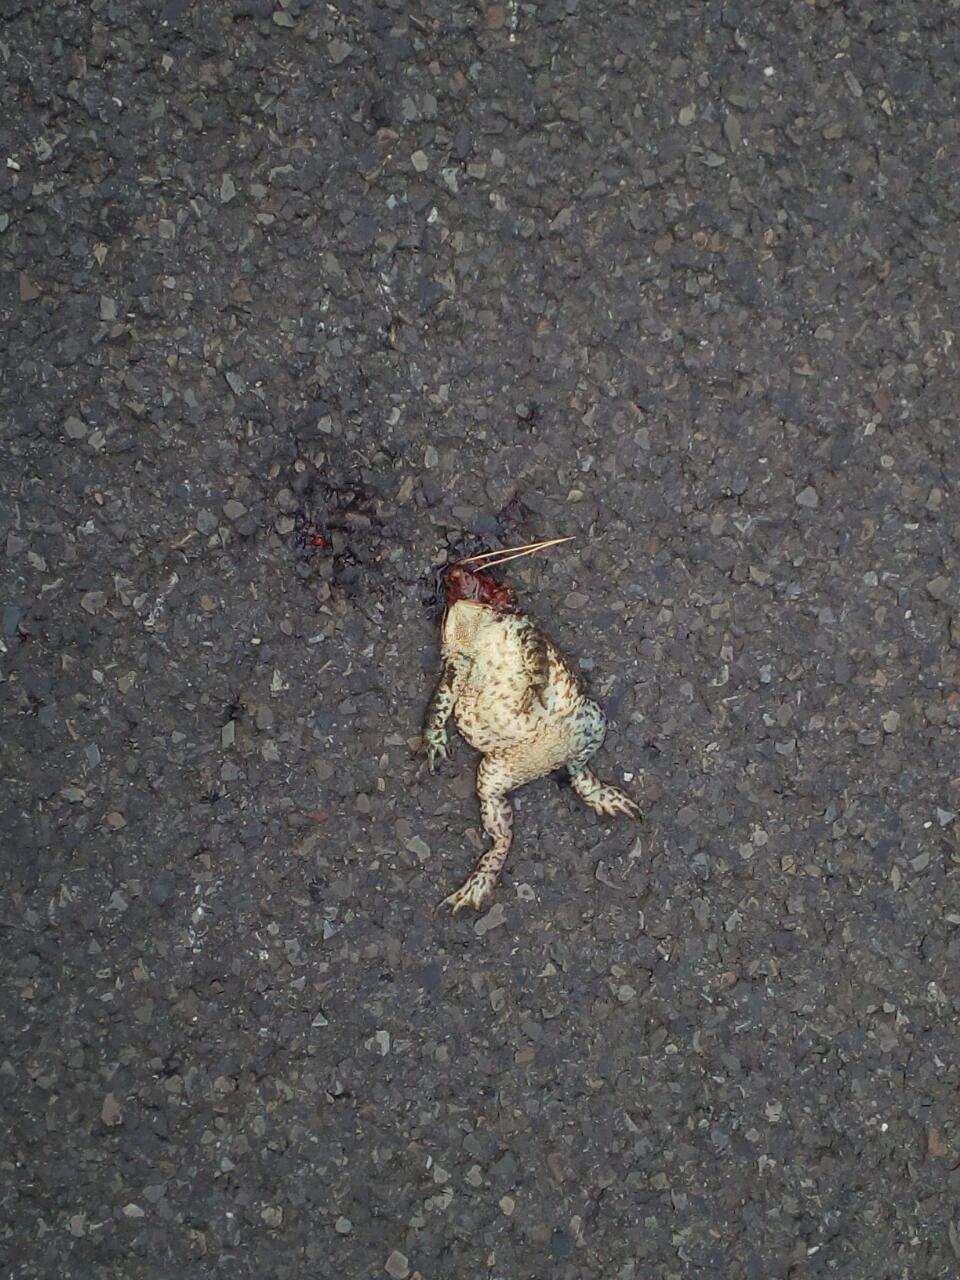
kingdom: Animalia
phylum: Chordata
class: Amphibia
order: Anura
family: Bufonidae
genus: Bufo
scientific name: Bufo bufo
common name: Common toad
